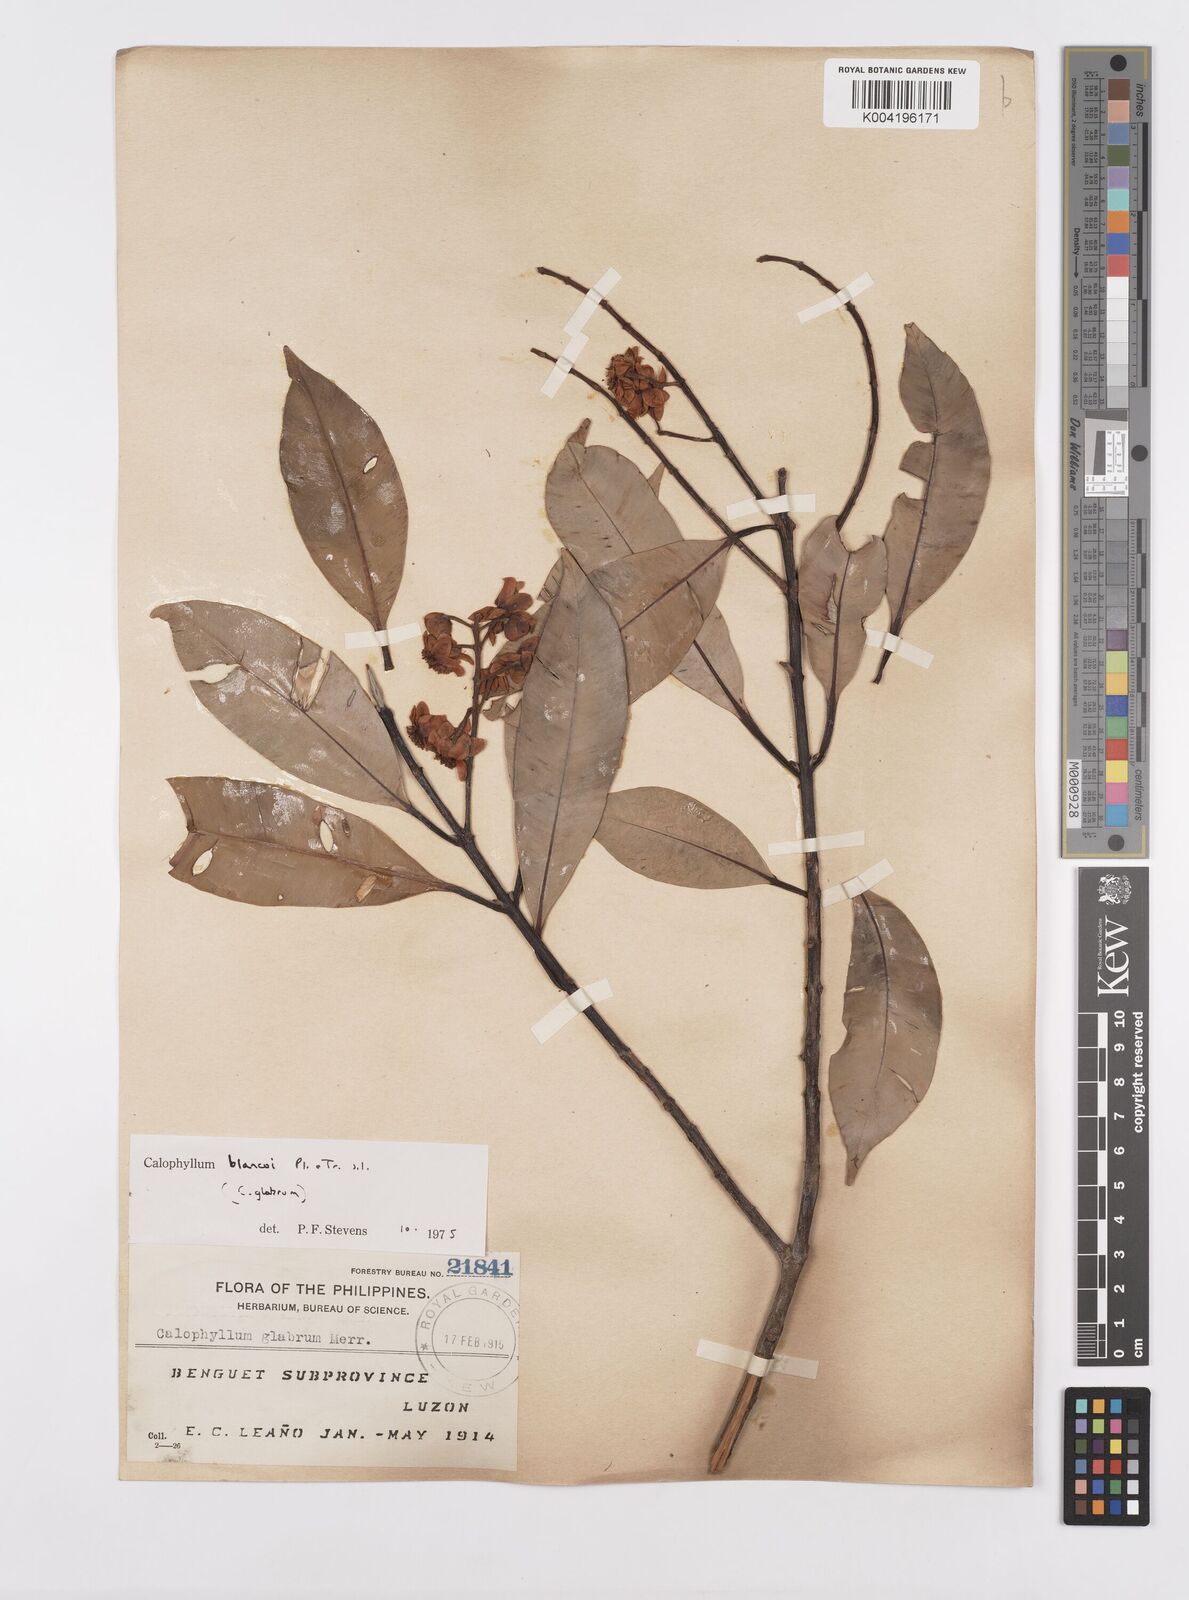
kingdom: Plantae
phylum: Tracheophyta
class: Magnoliopsida
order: Malpighiales
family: Calophyllaceae
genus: Calophyllum
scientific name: Calophyllum blancoi
